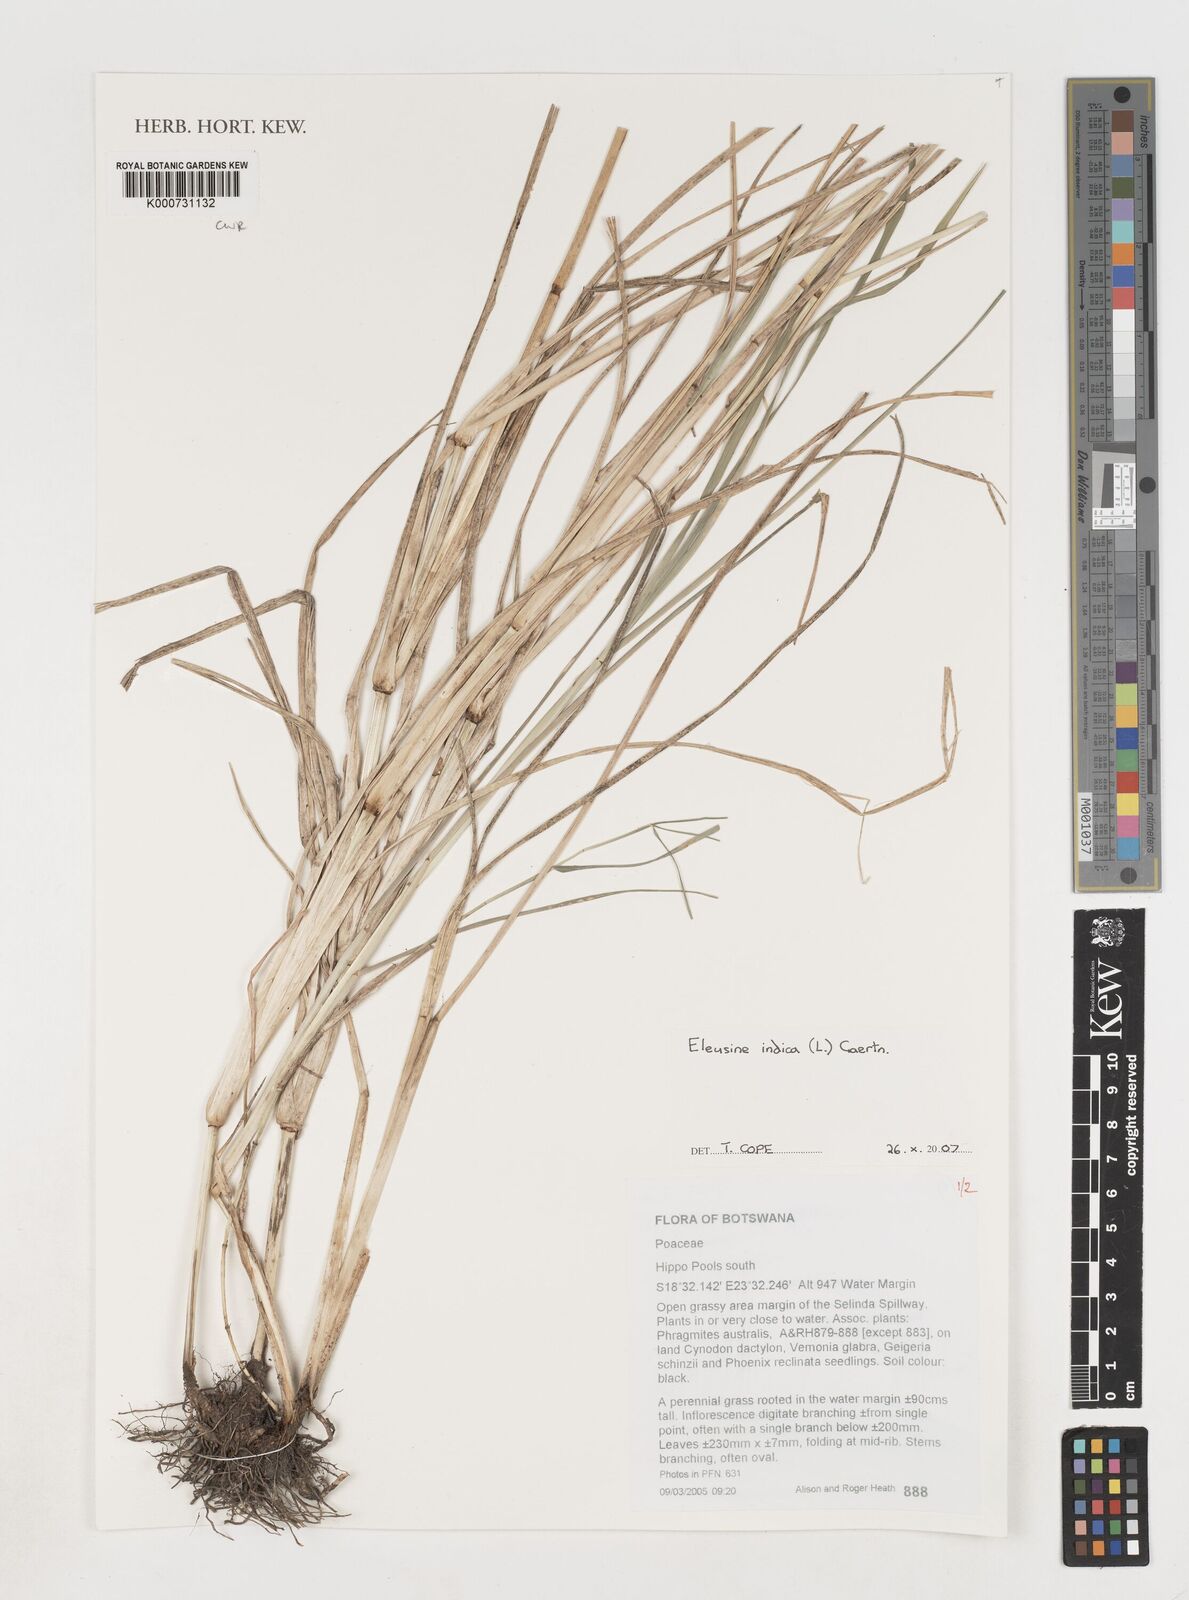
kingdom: Plantae
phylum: Tracheophyta
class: Liliopsida
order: Poales
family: Poaceae
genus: Eleusine
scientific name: Eleusine indica
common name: Yard-grass
